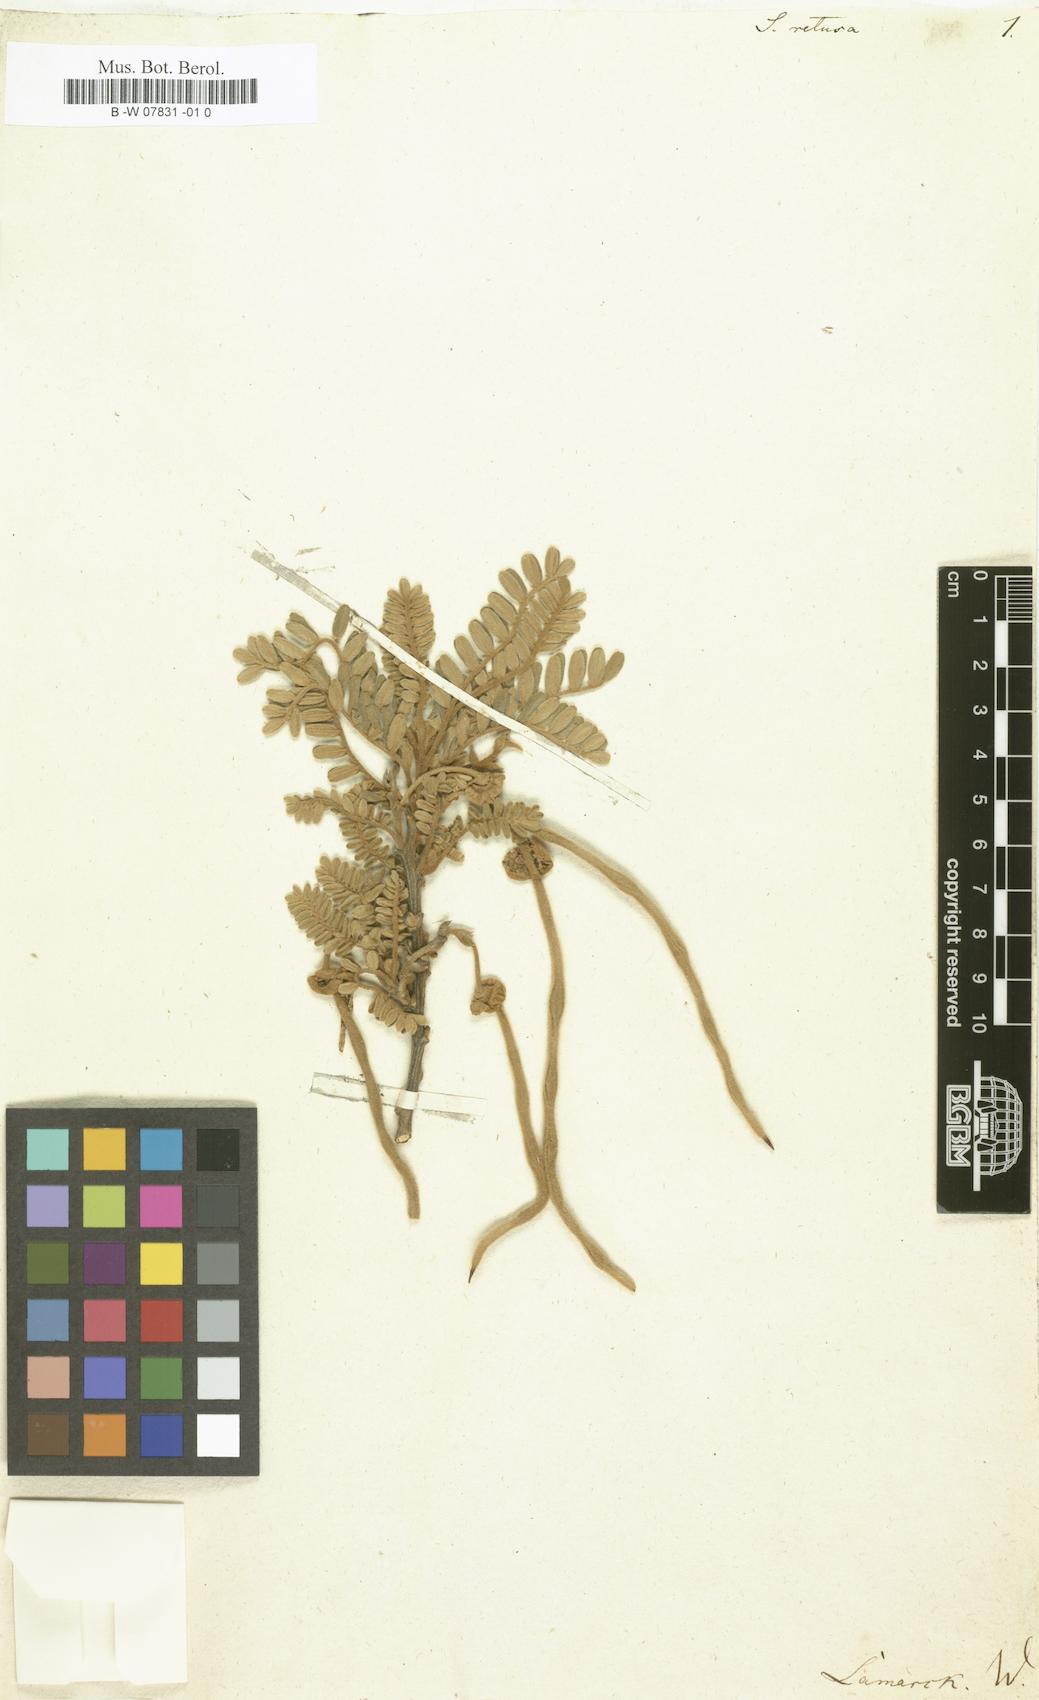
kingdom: Plantae
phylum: Tracheophyta
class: Magnoliopsida
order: Fabales
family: Fabaceae
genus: Sophora
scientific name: Sophora denudata
